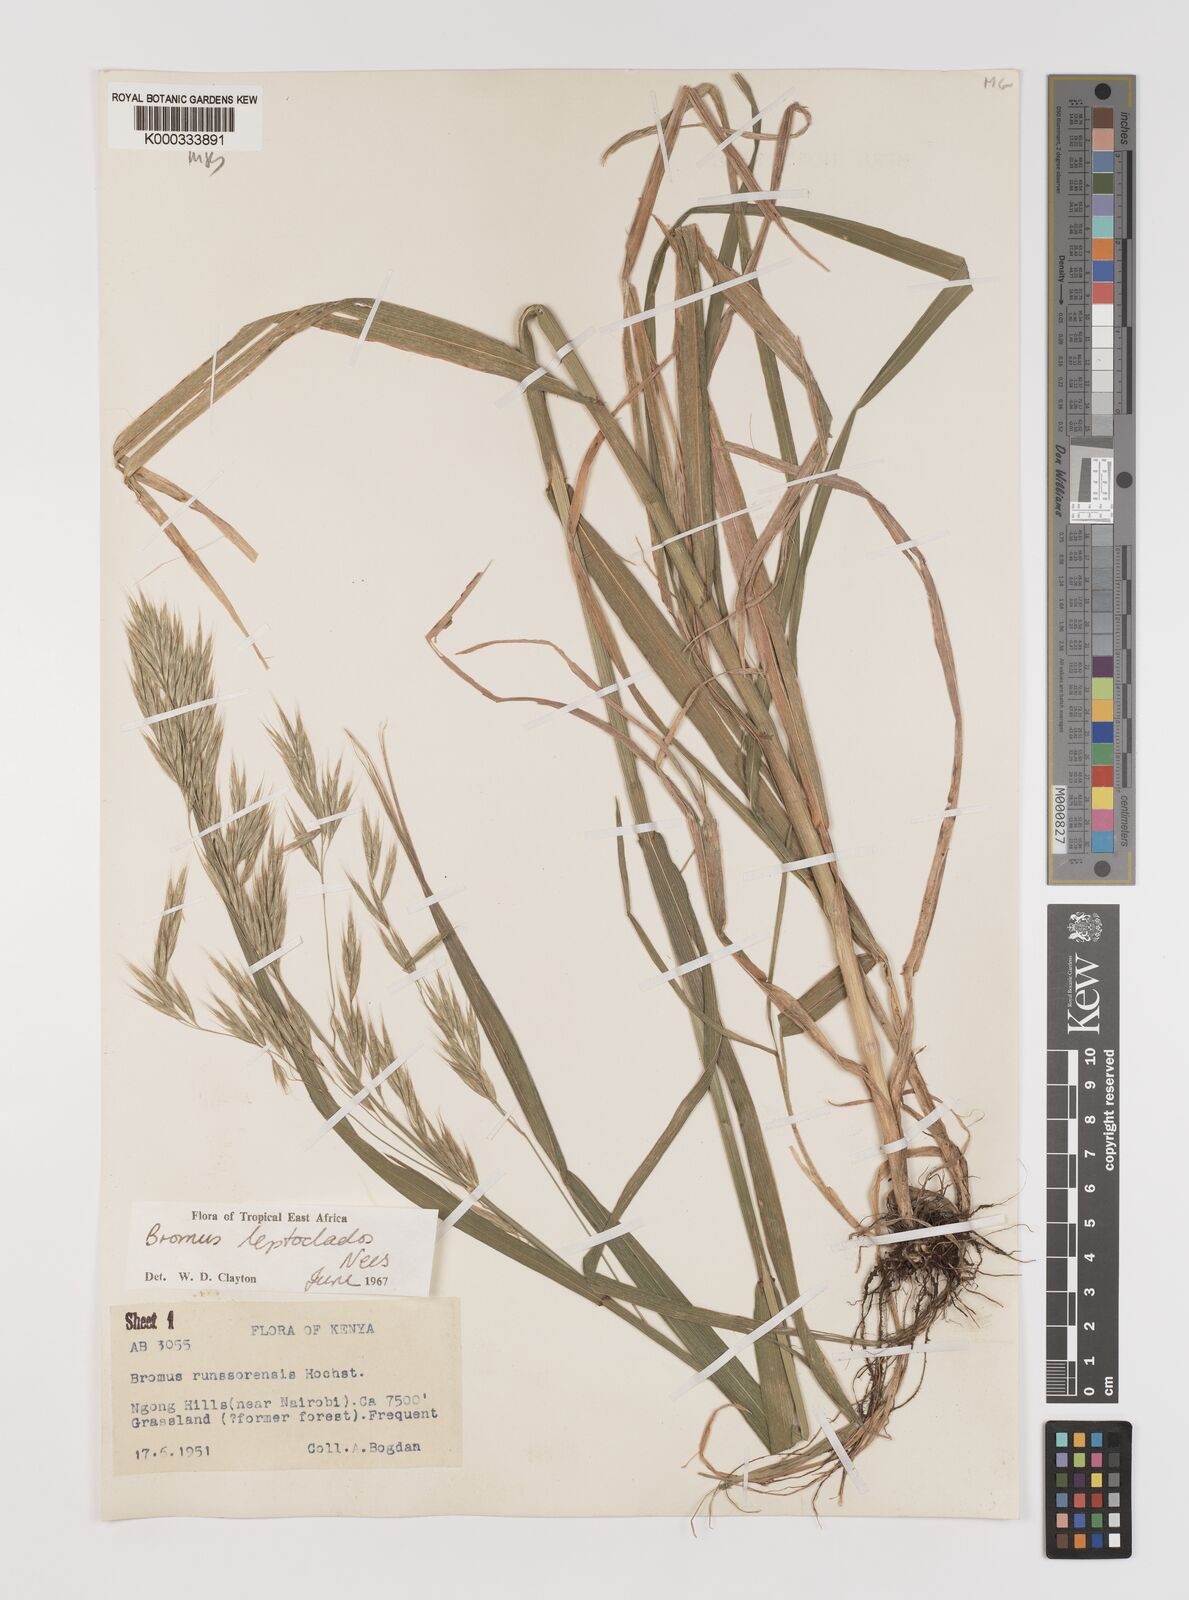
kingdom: Plantae
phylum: Tracheophyta
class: Liliopsida
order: Poales
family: Poaceae
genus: Bromus
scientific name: Bromus leptoclados
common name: Mountain bromegrass
